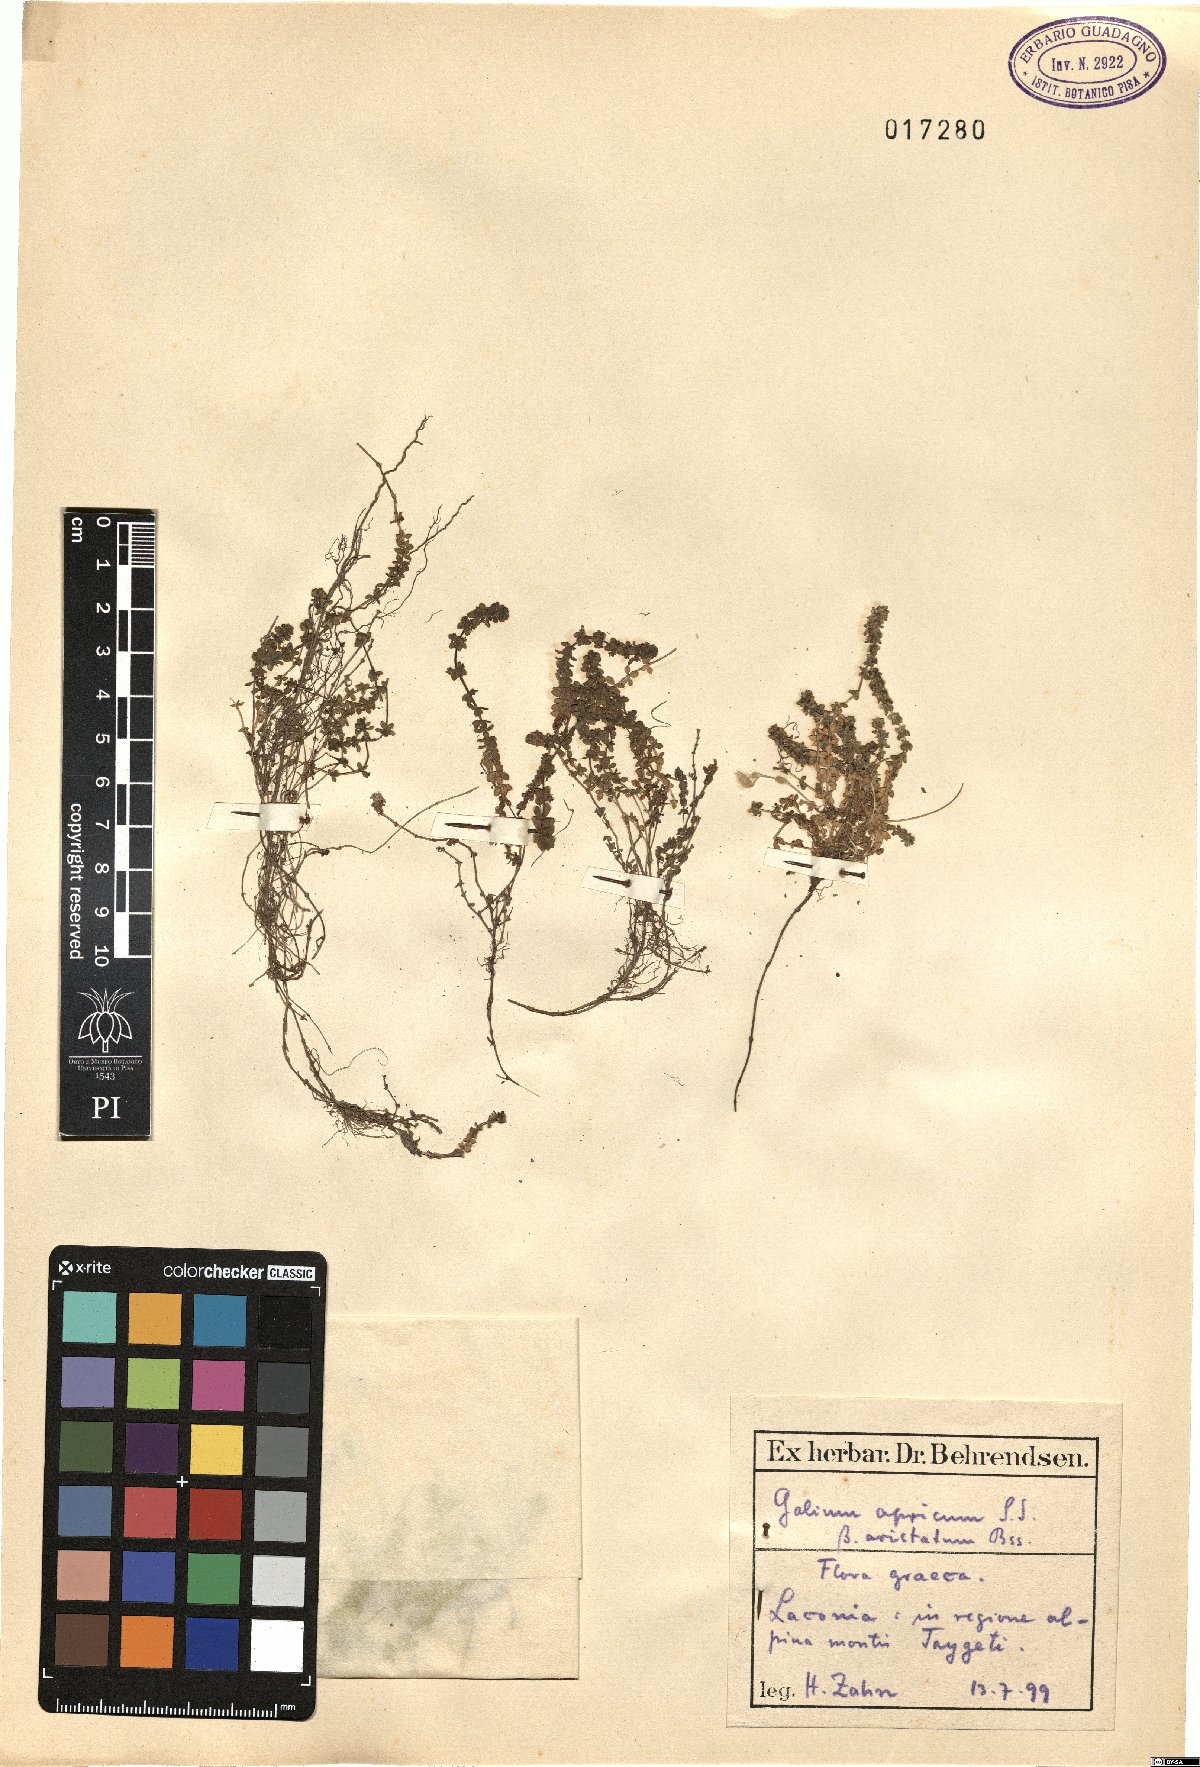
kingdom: Plantae
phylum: Tracheophyta
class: Magnoliopsida
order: Gentianales
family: Rubiaceae
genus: Valantia
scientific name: Valantia aprica
